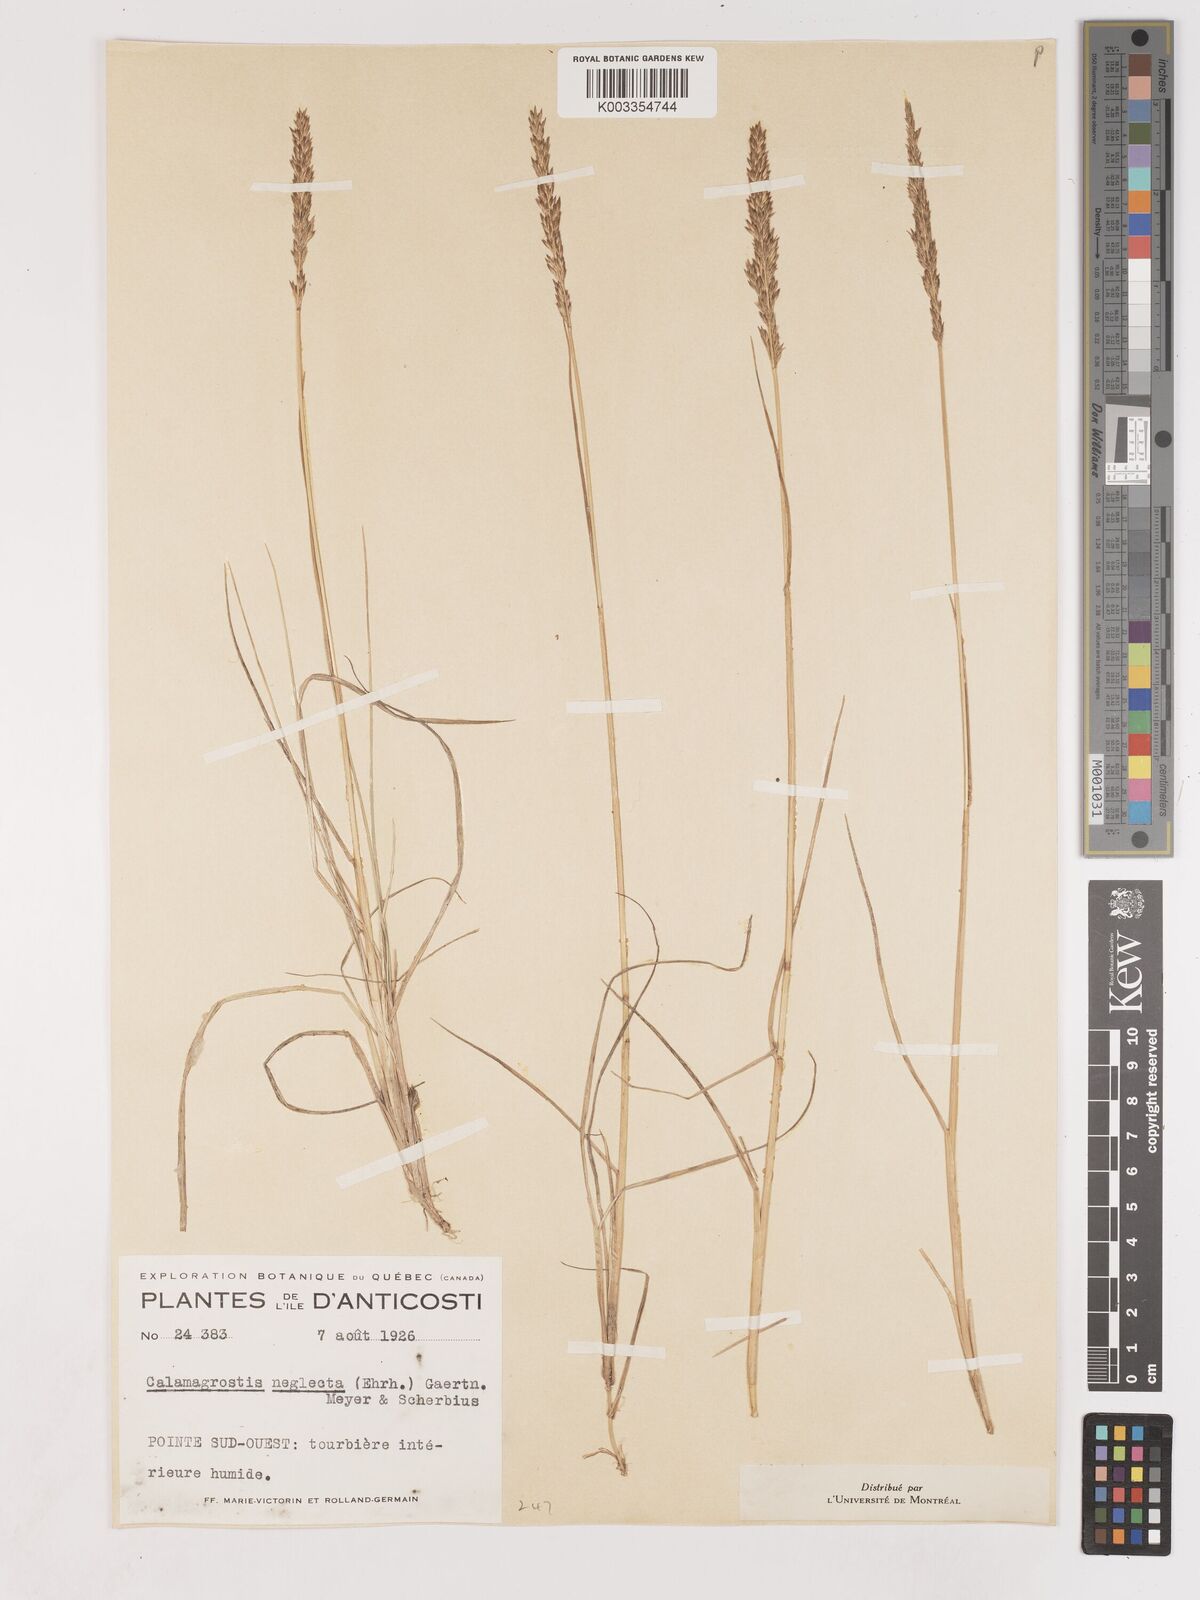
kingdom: Plantae
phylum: Tracheophyta
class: Liliopsida
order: Poales
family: Poaceae
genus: Cinnagrostis
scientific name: Cinnagrostis recta
